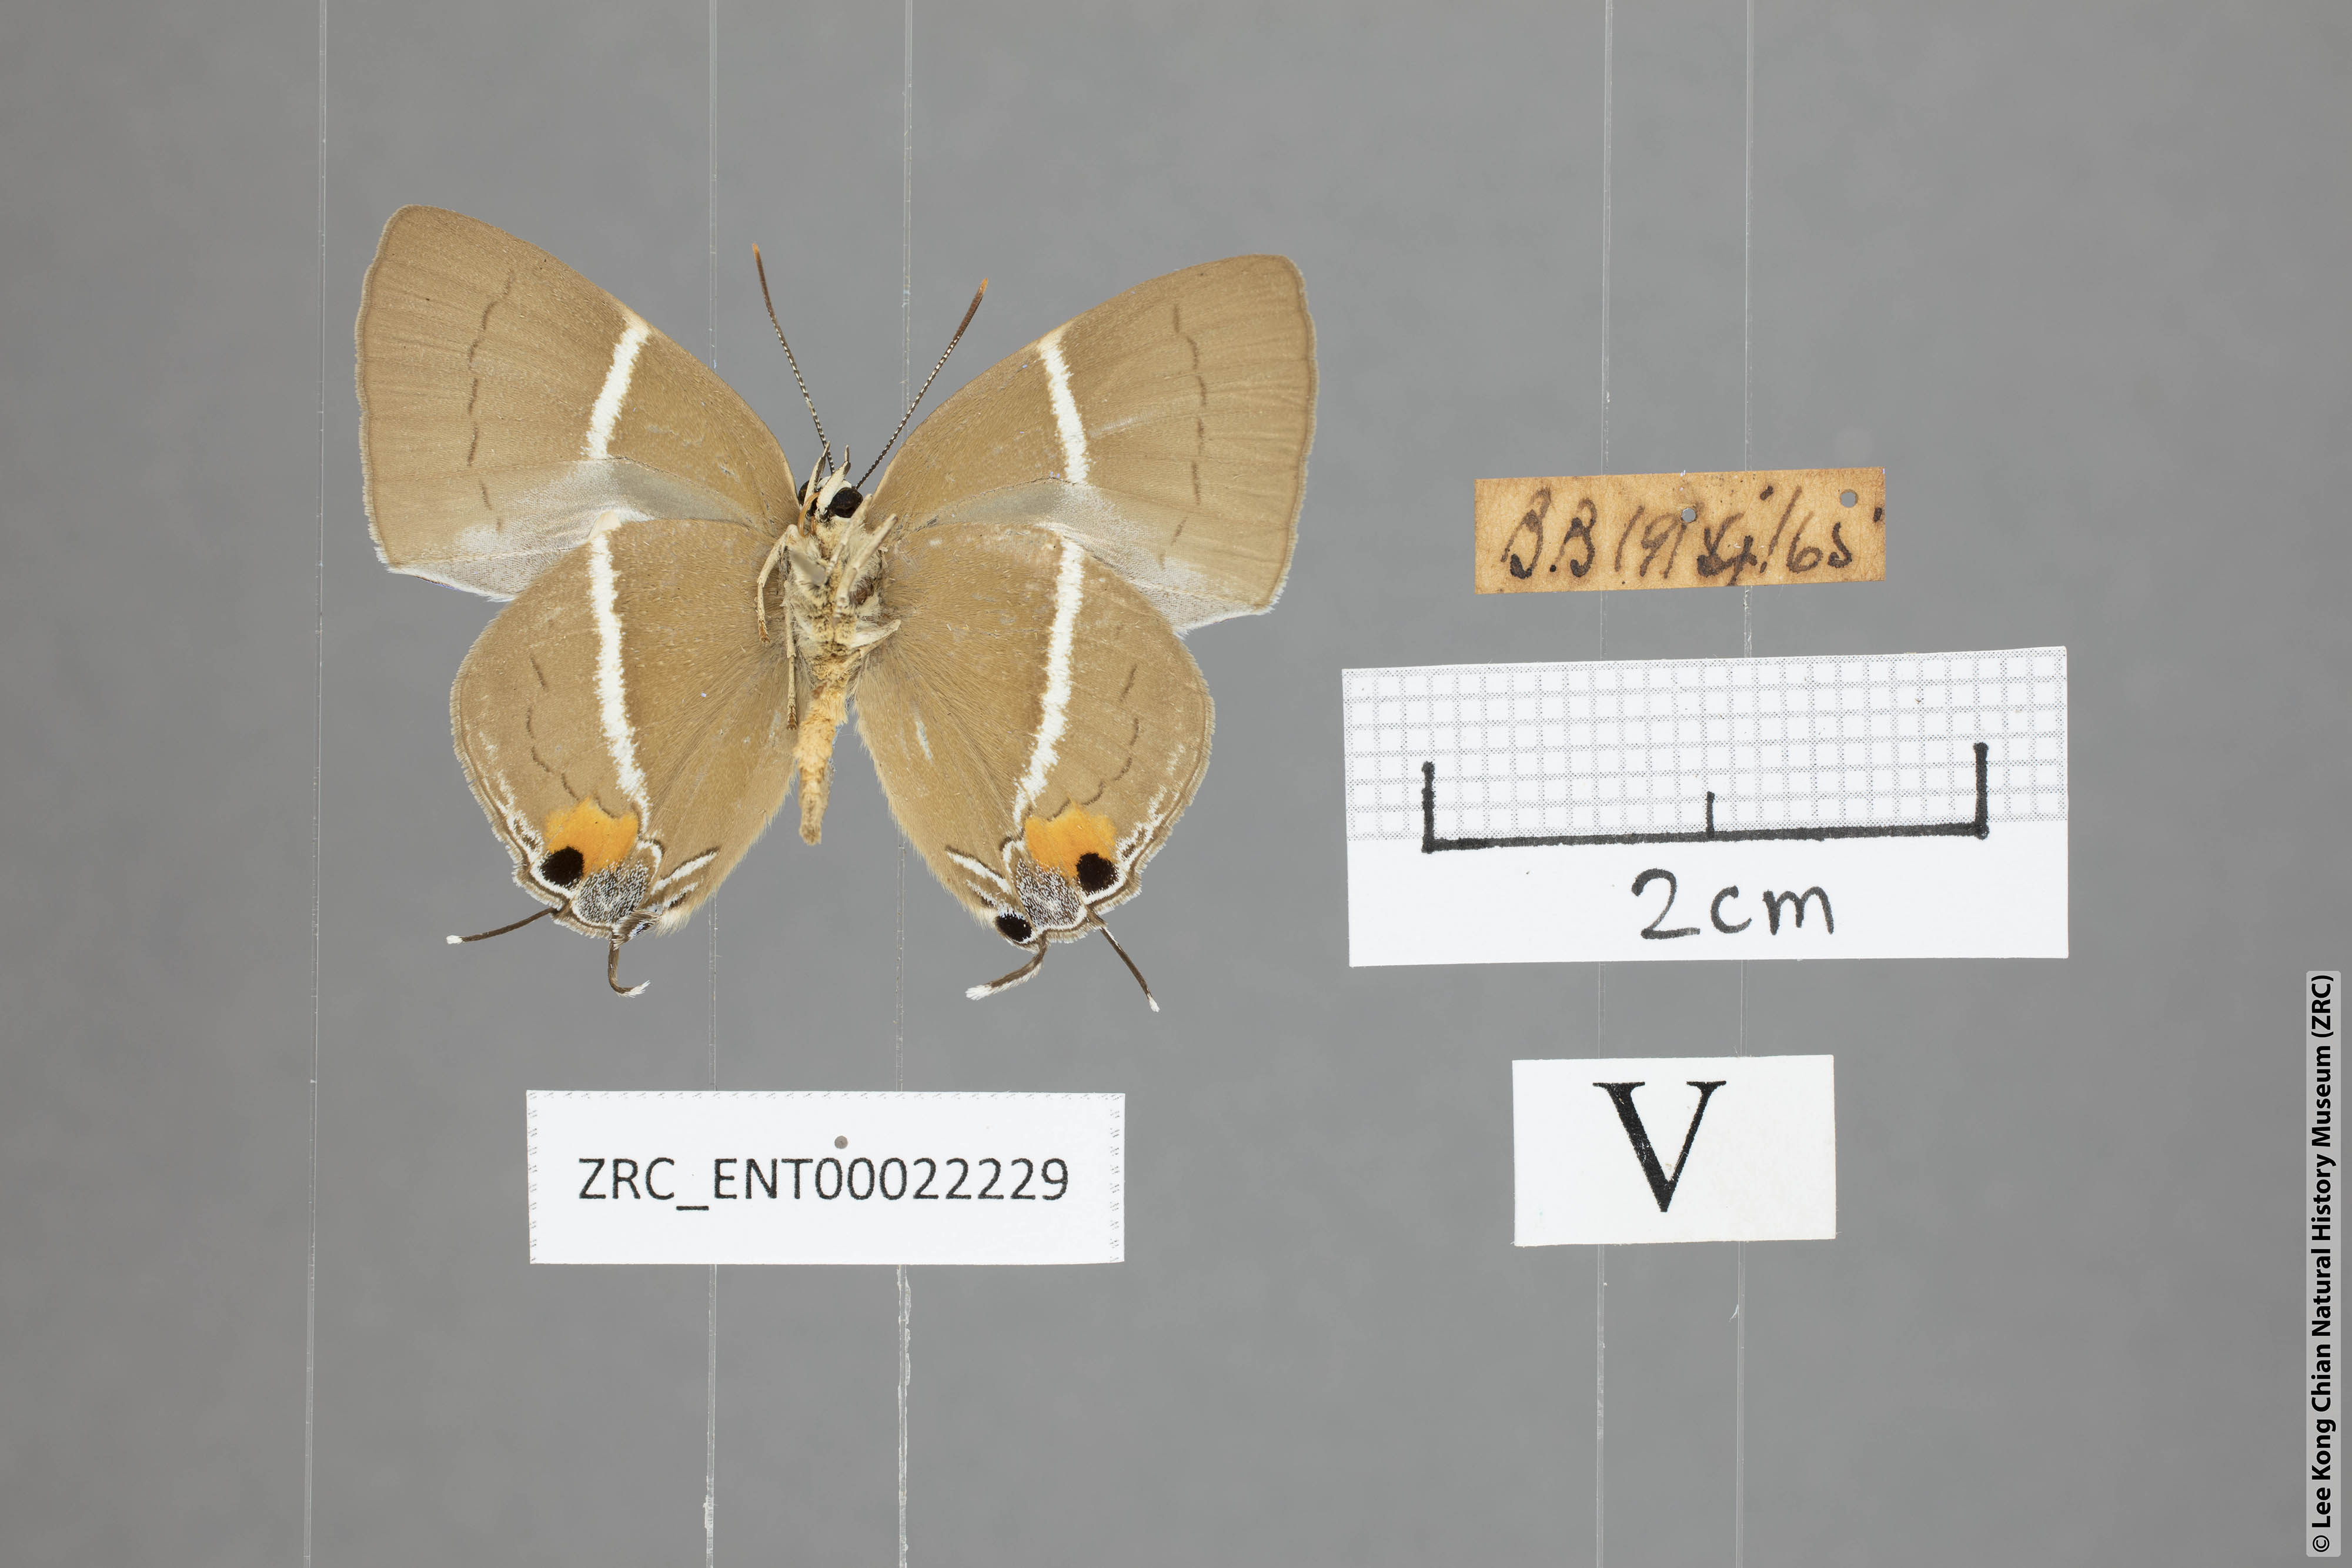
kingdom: Animalia
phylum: Arthropoda
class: Insecta
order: Lepidoptera
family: Lycaenidae
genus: Tajuria
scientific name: Tajuria
